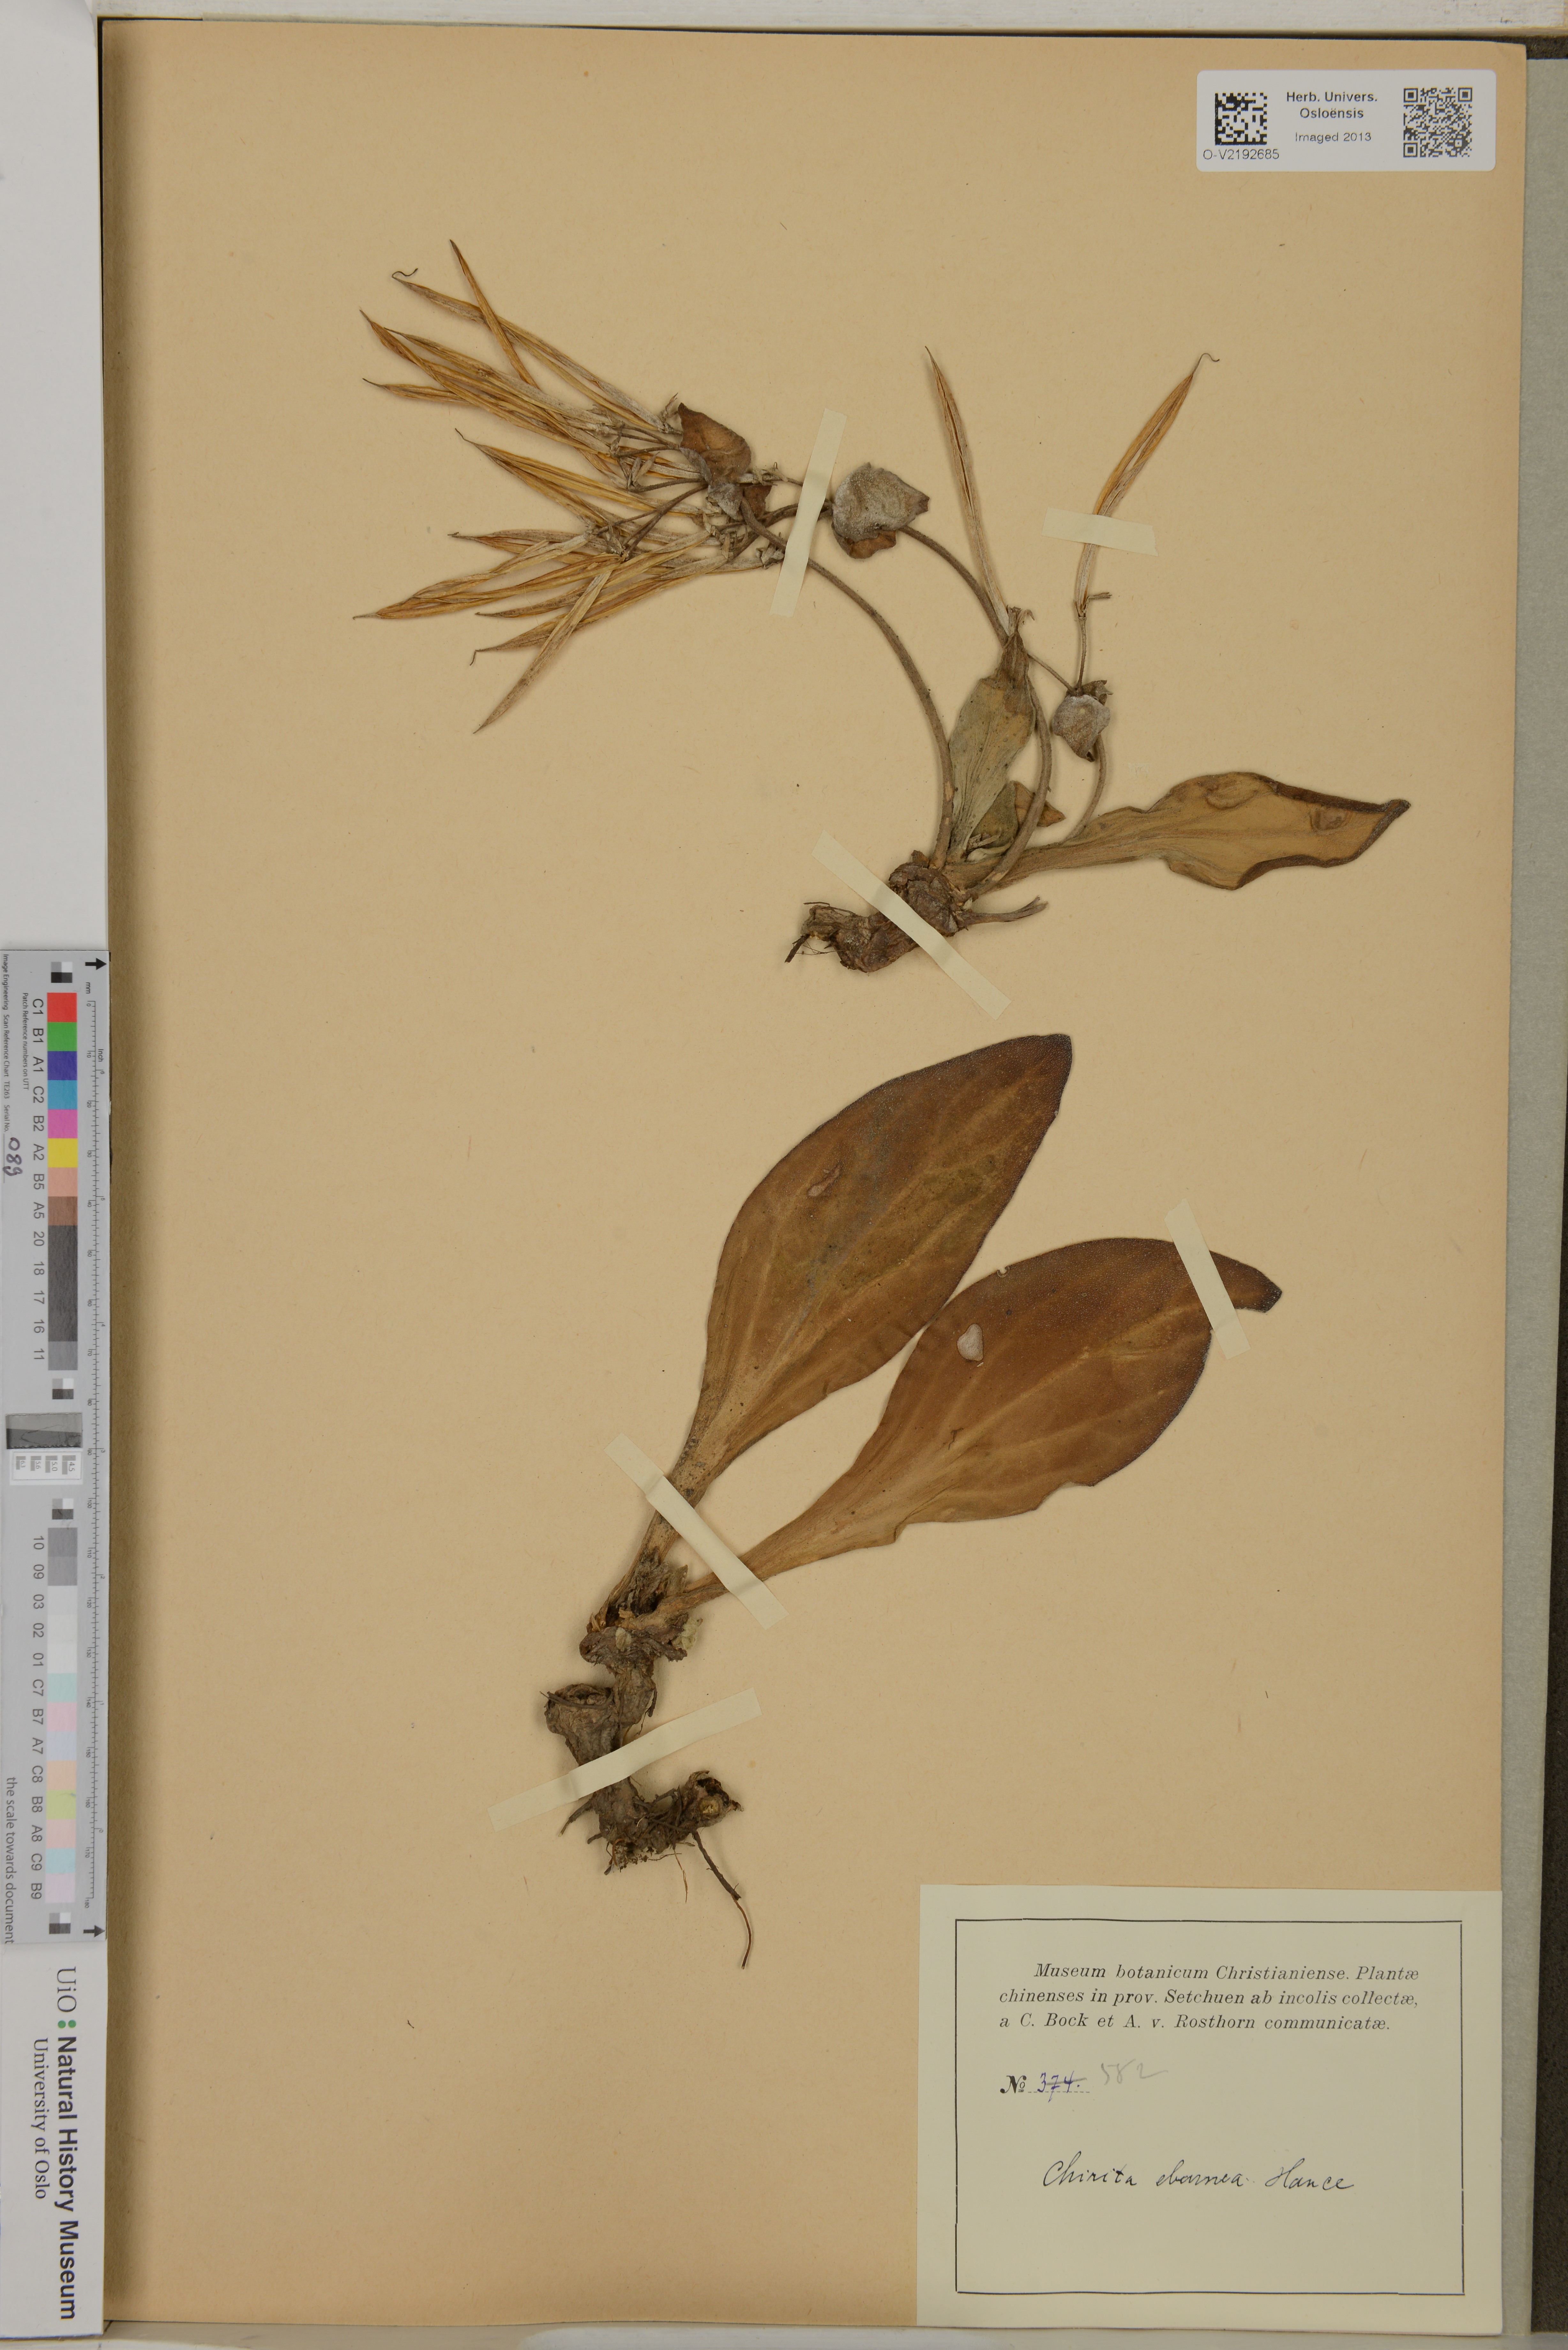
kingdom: Plantae
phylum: Tracheophyta
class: Magnoliopsida
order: Lamiales
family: Gesneriaceae
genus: Primulina
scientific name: Primulina eburnea
